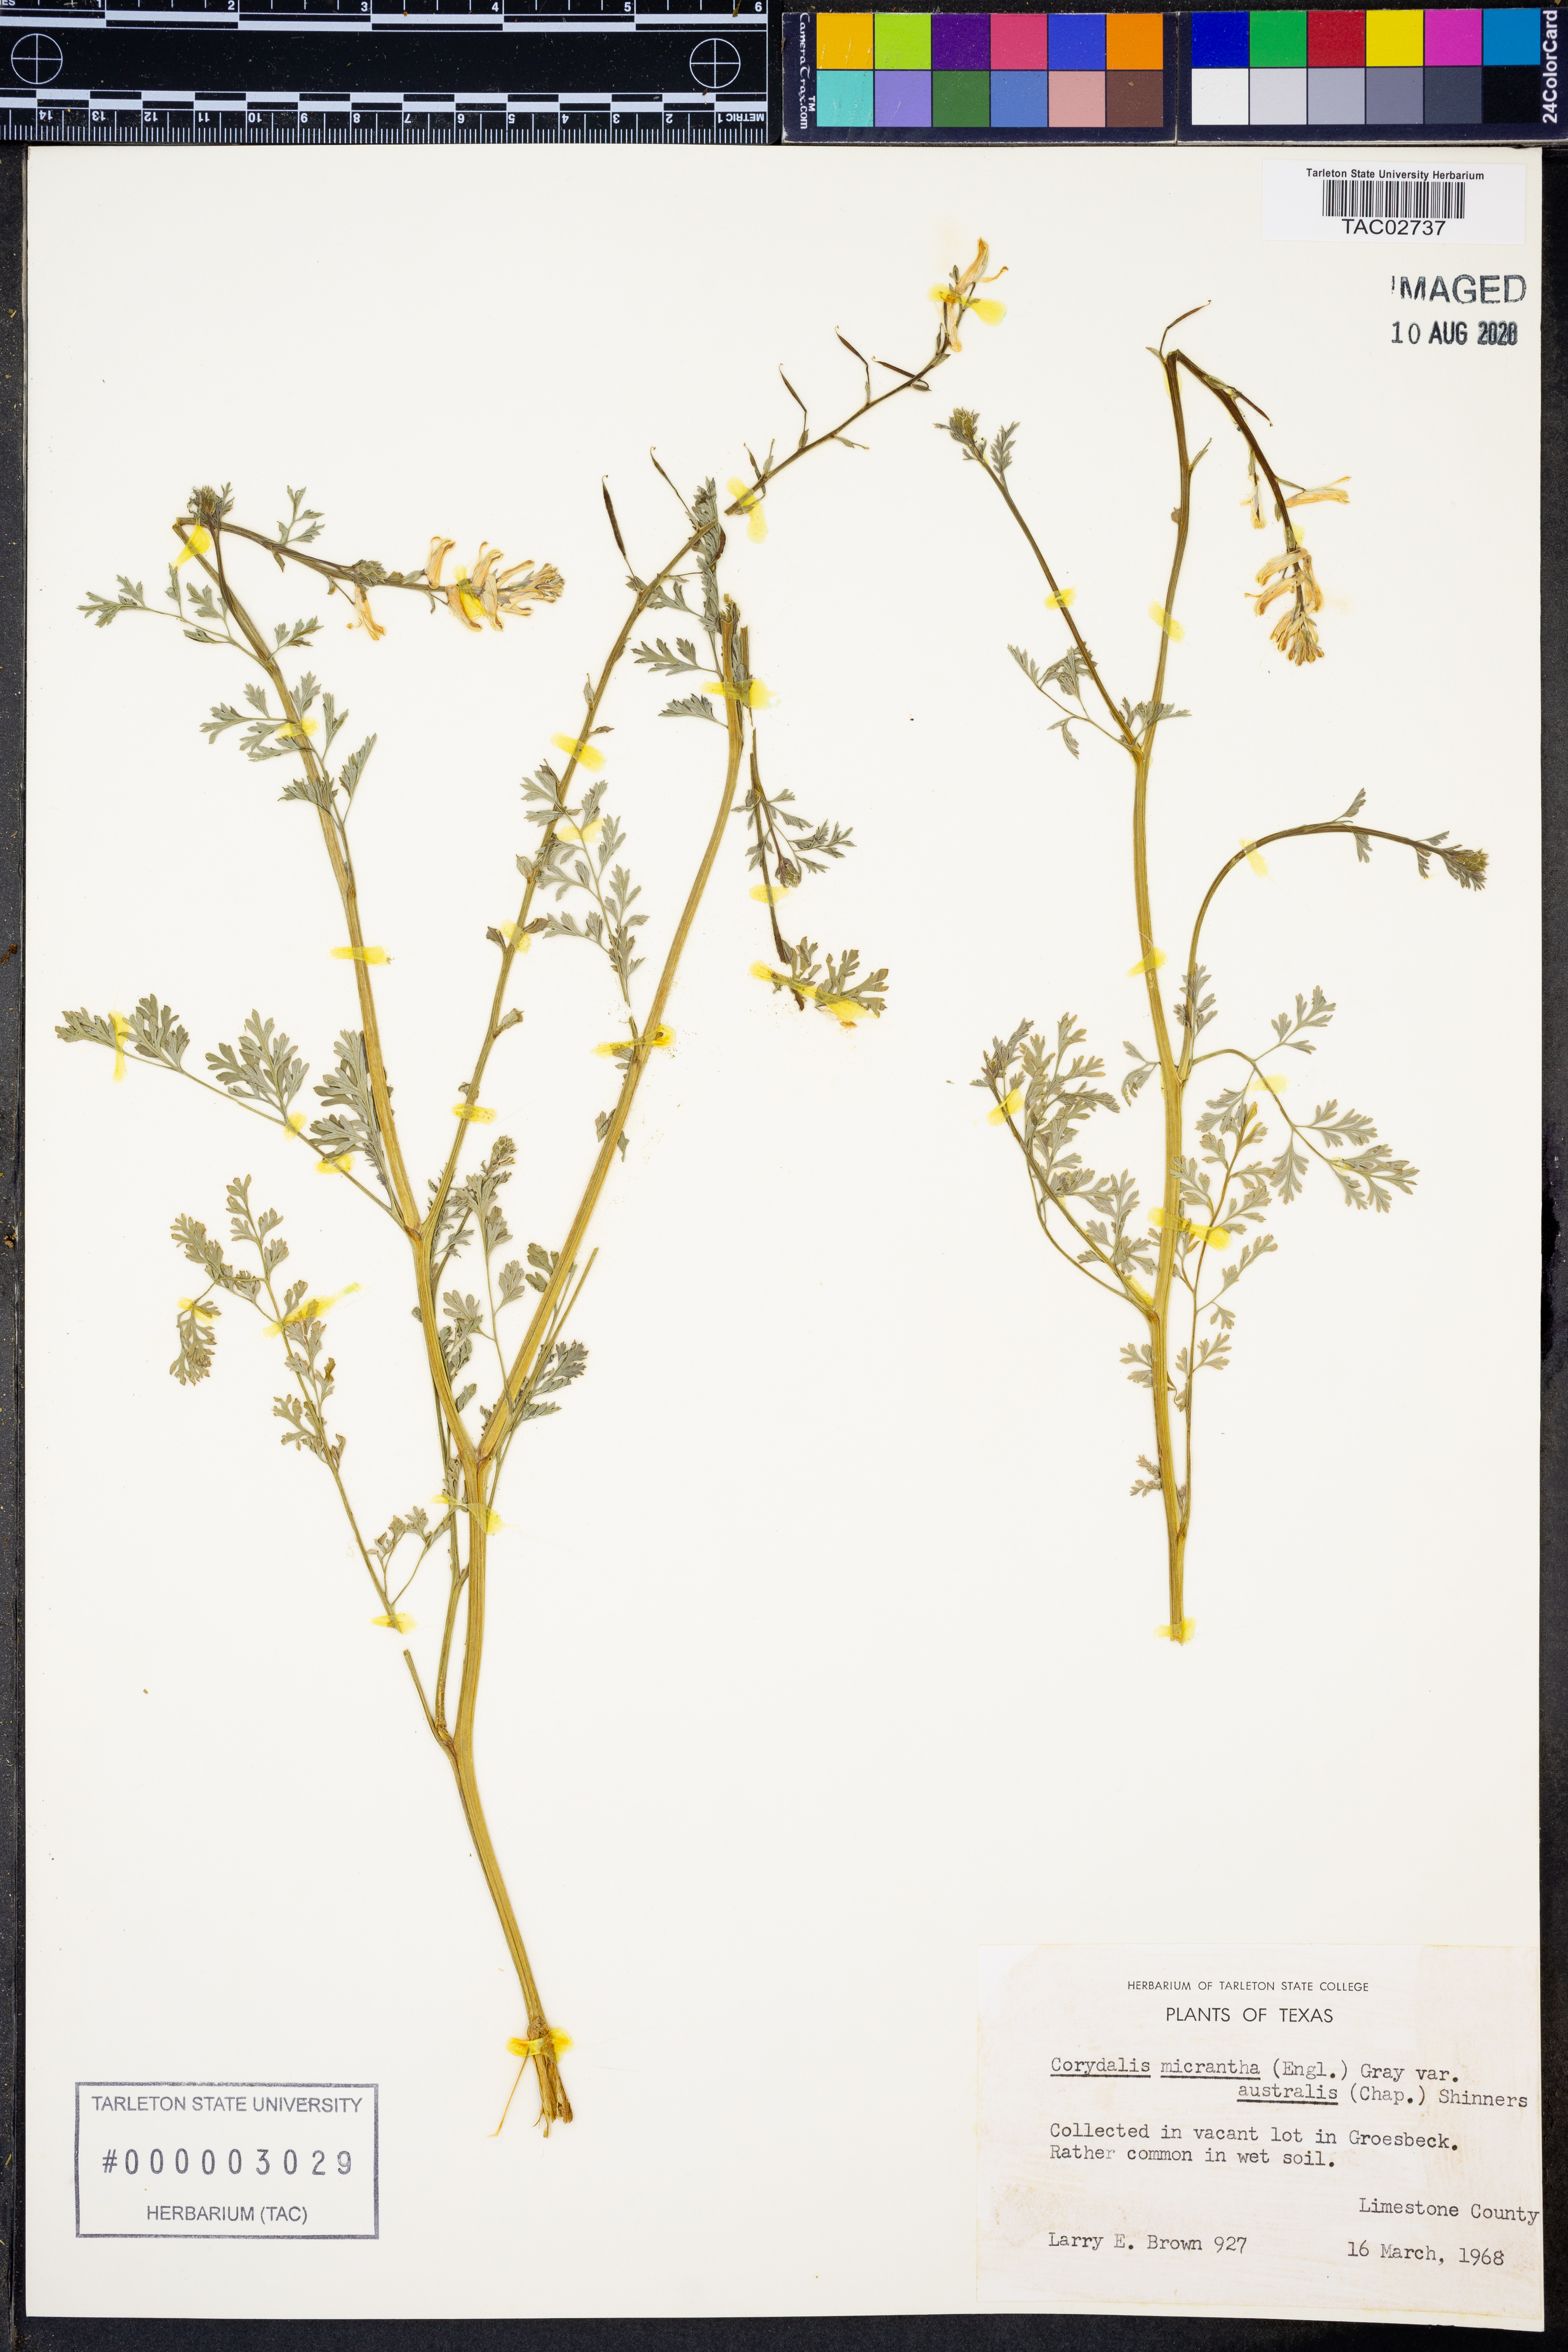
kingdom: Plantae
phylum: Tracheophyta
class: Magnoliopsida
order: Ranunculales
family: Papaveraceae
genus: Corydalis
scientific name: Corydalis micrantha
